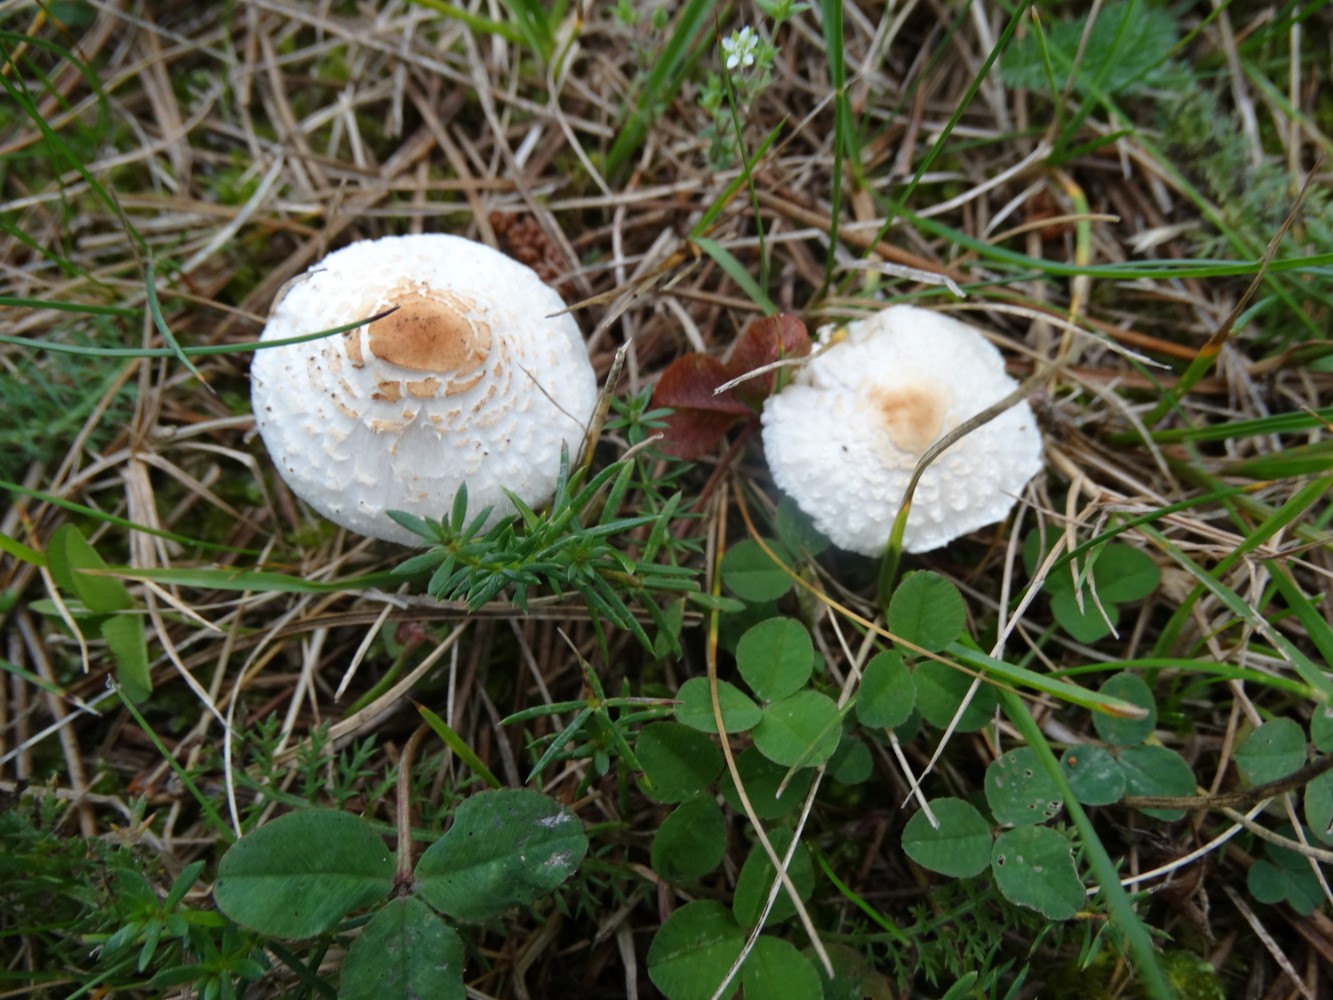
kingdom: Fungi
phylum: Basidiomycota
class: Agaricomycetes
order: Agaricales
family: Agaricaceae
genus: Lepiota
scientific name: Lepiota cristata
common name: stinkende parasolhat
